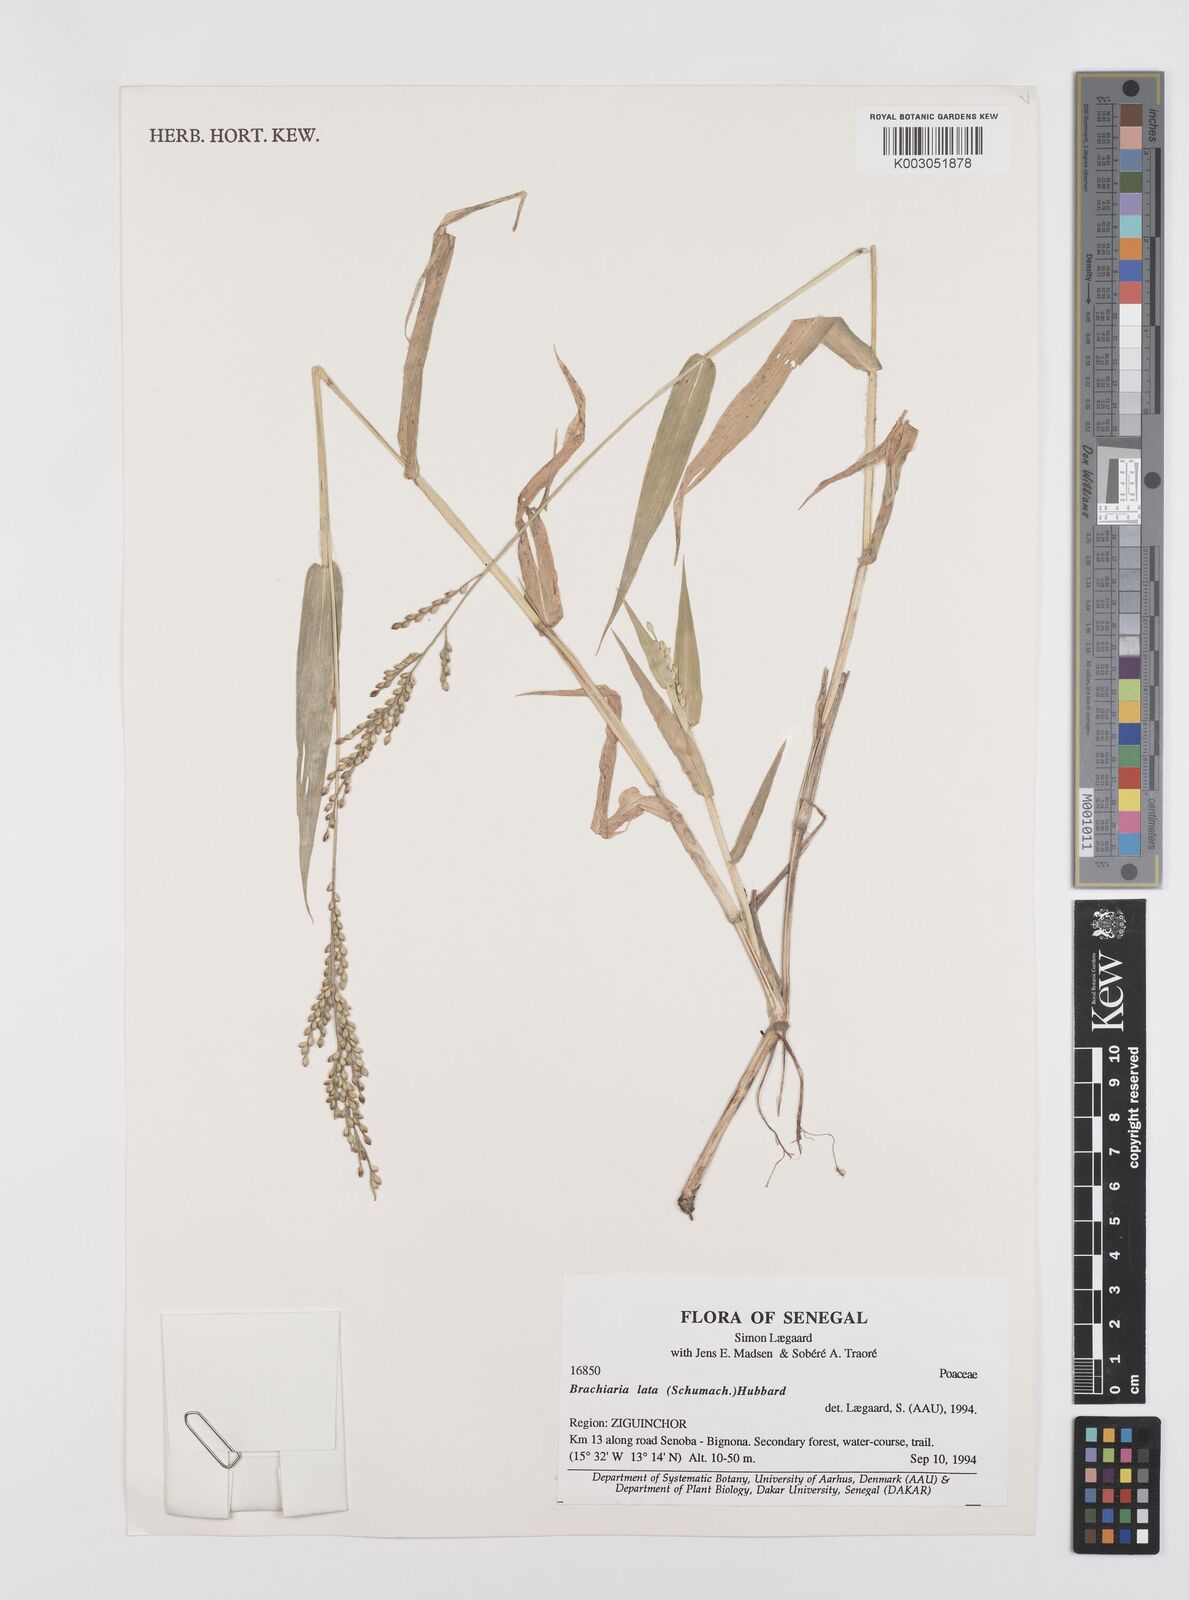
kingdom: Plantae
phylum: Tracheophyta
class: Liliopsida
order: Poales
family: Poaceae
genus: Urochloa
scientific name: Urochloa lata
